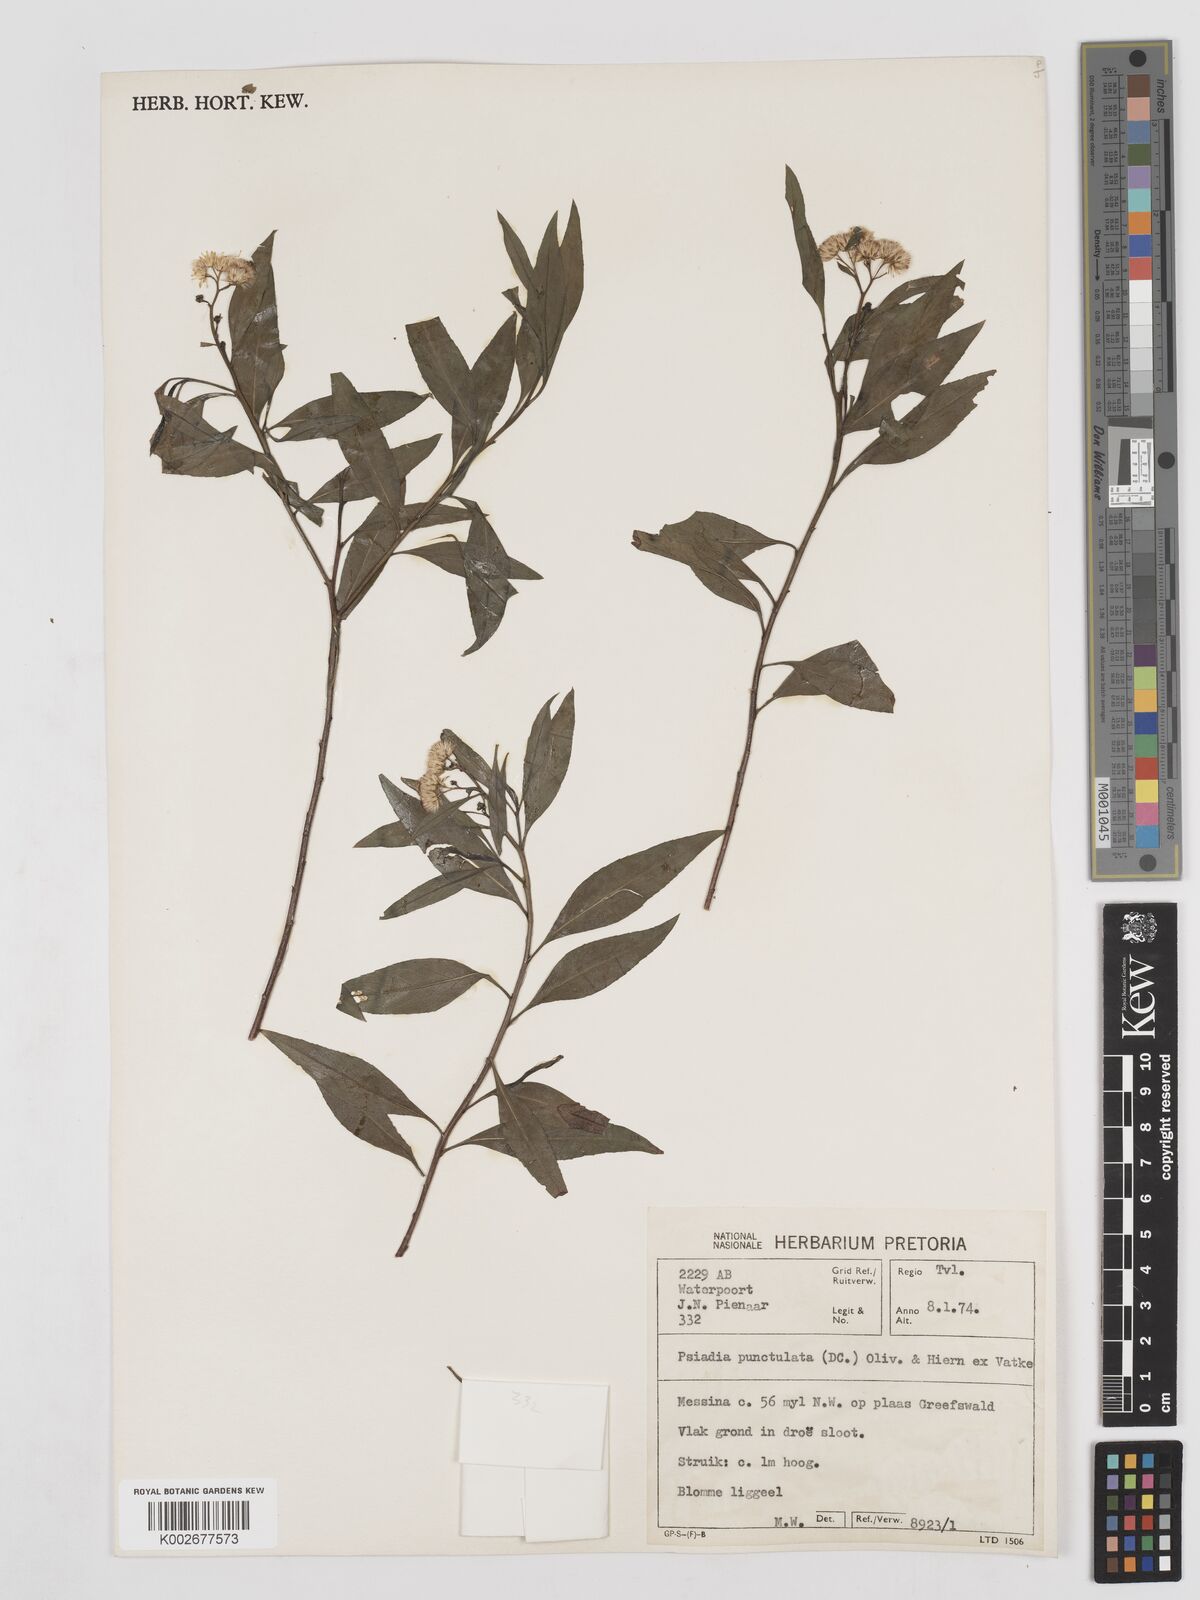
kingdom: Plantae
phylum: Tracheophyta
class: Magnoliopsida
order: Asterales
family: Asteraceae
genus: Psiadia
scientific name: Psiadia punctulata
